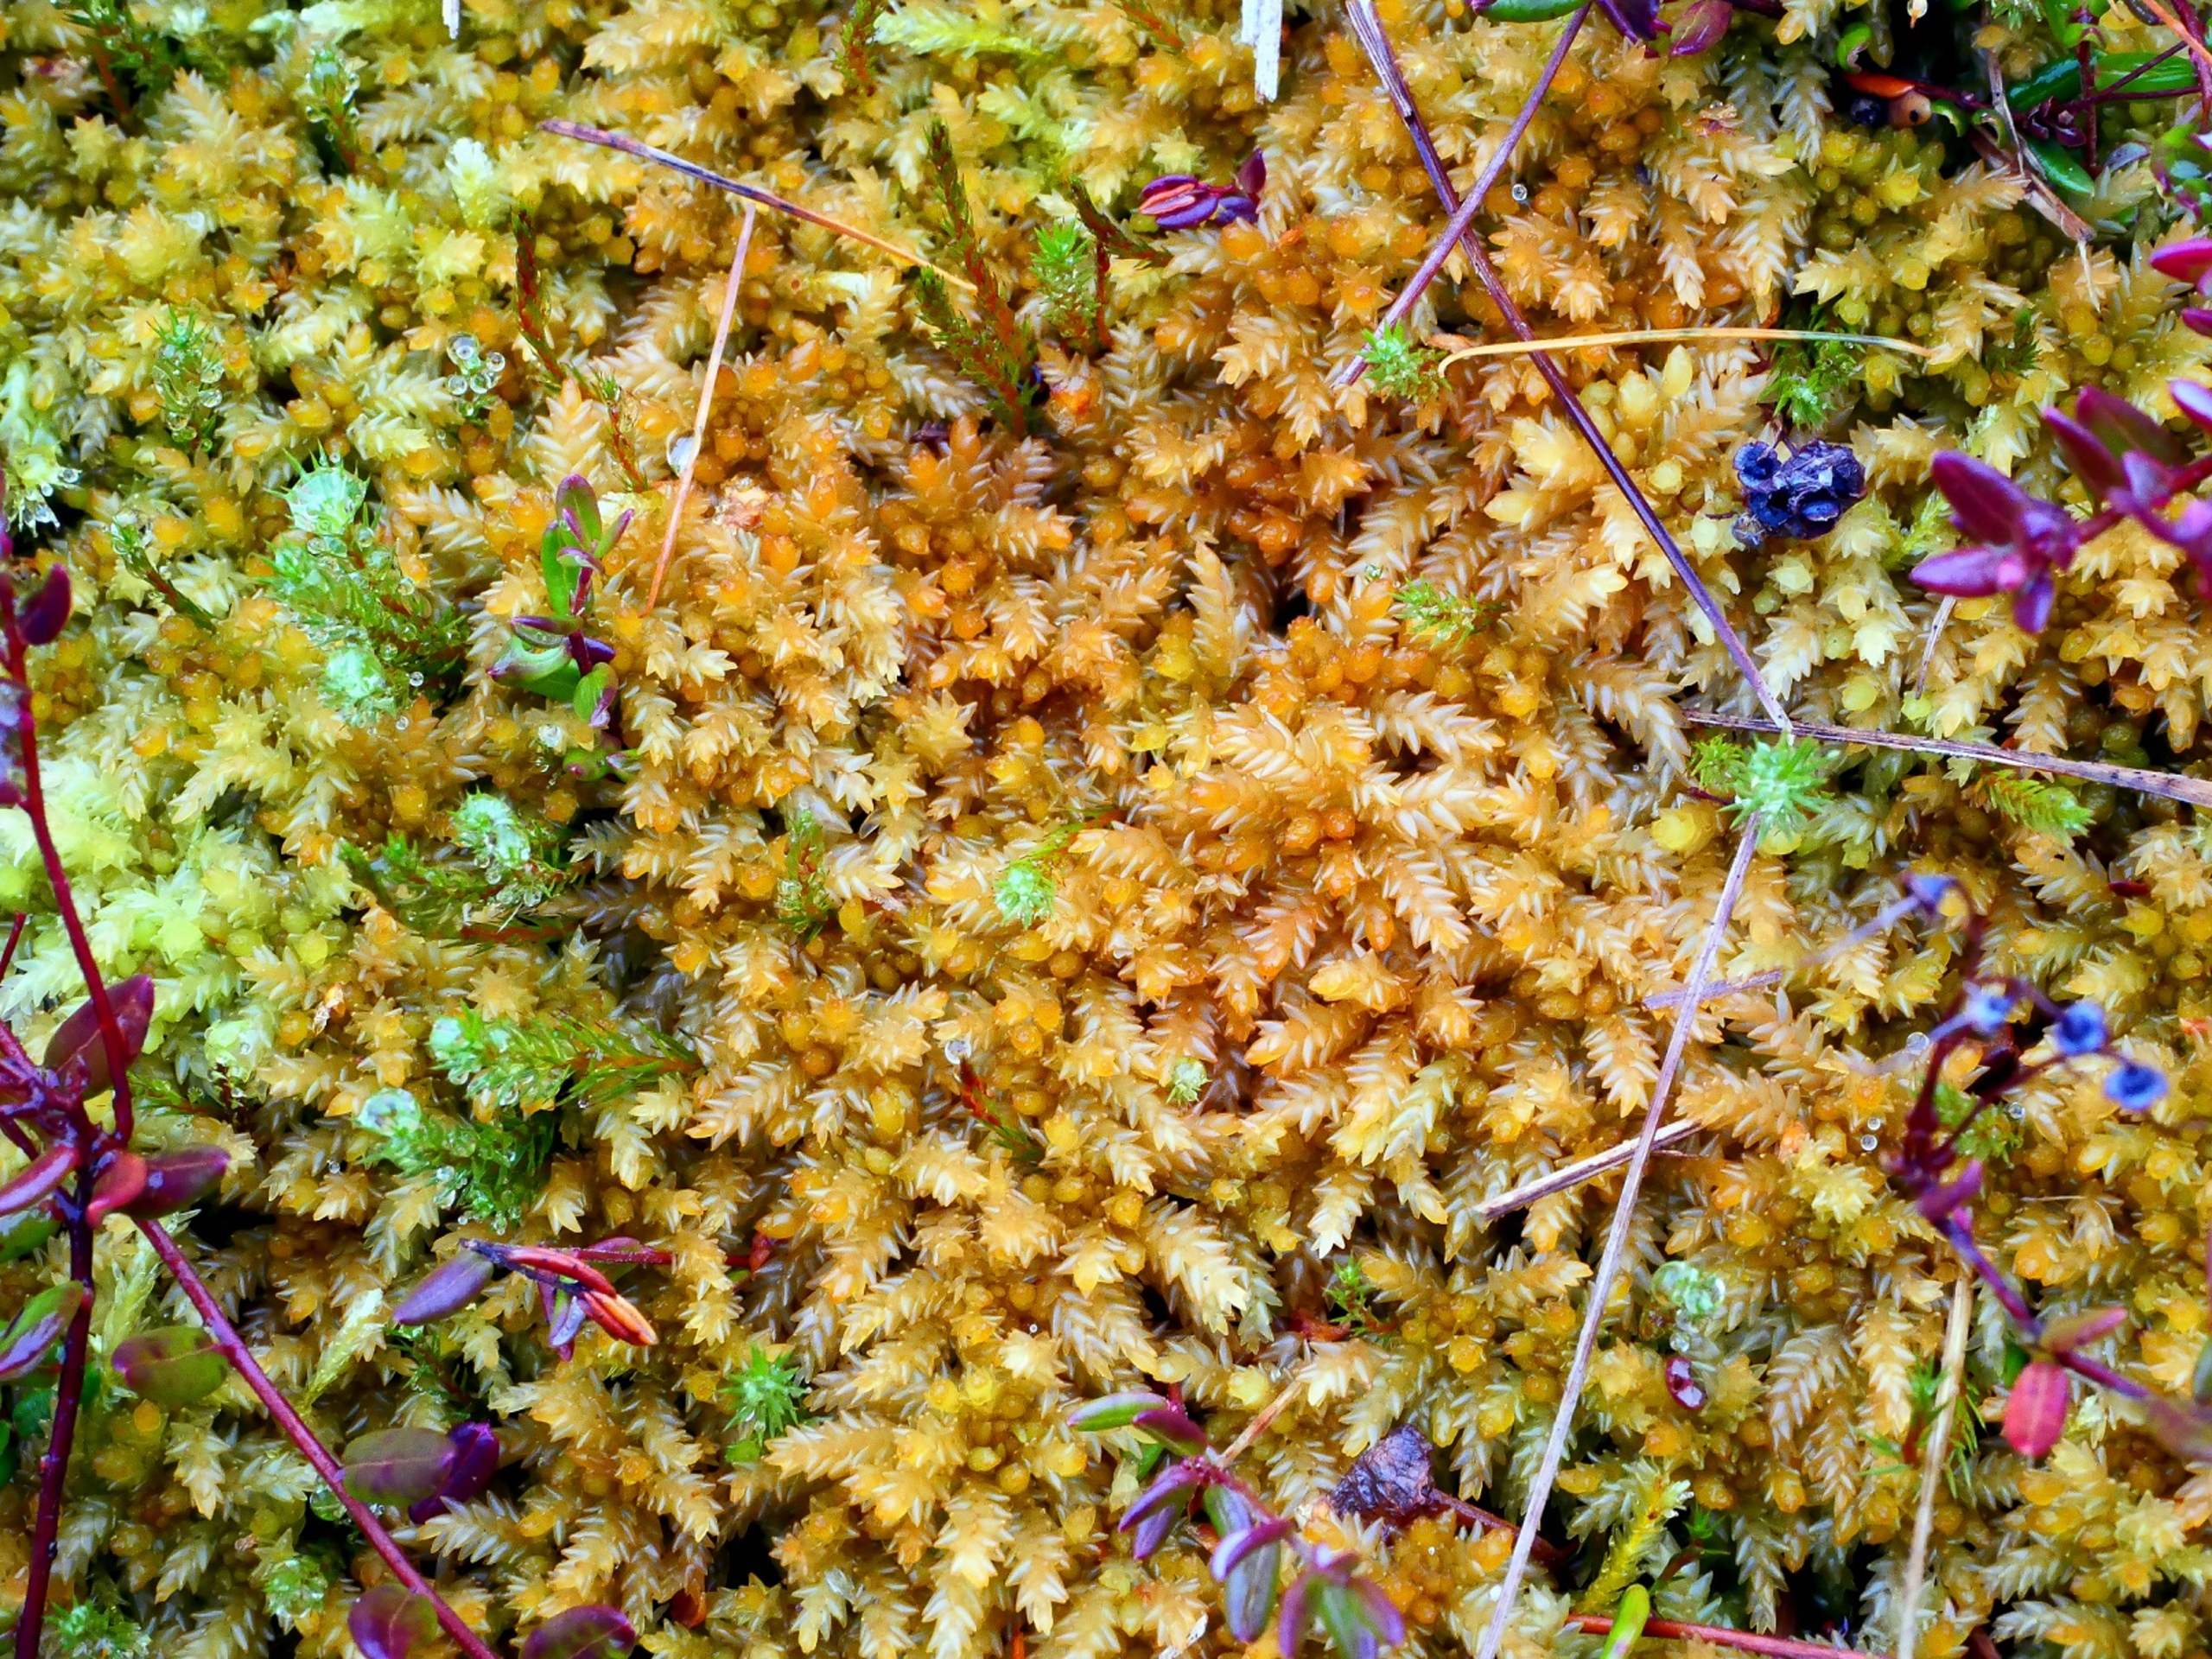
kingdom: Plantae
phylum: Bryophyta
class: Sphagnopsida
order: Sphagnales
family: Sphagnaceae
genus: Sphagnum
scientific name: Sphagnum papillosum
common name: Sod-tørvemos
